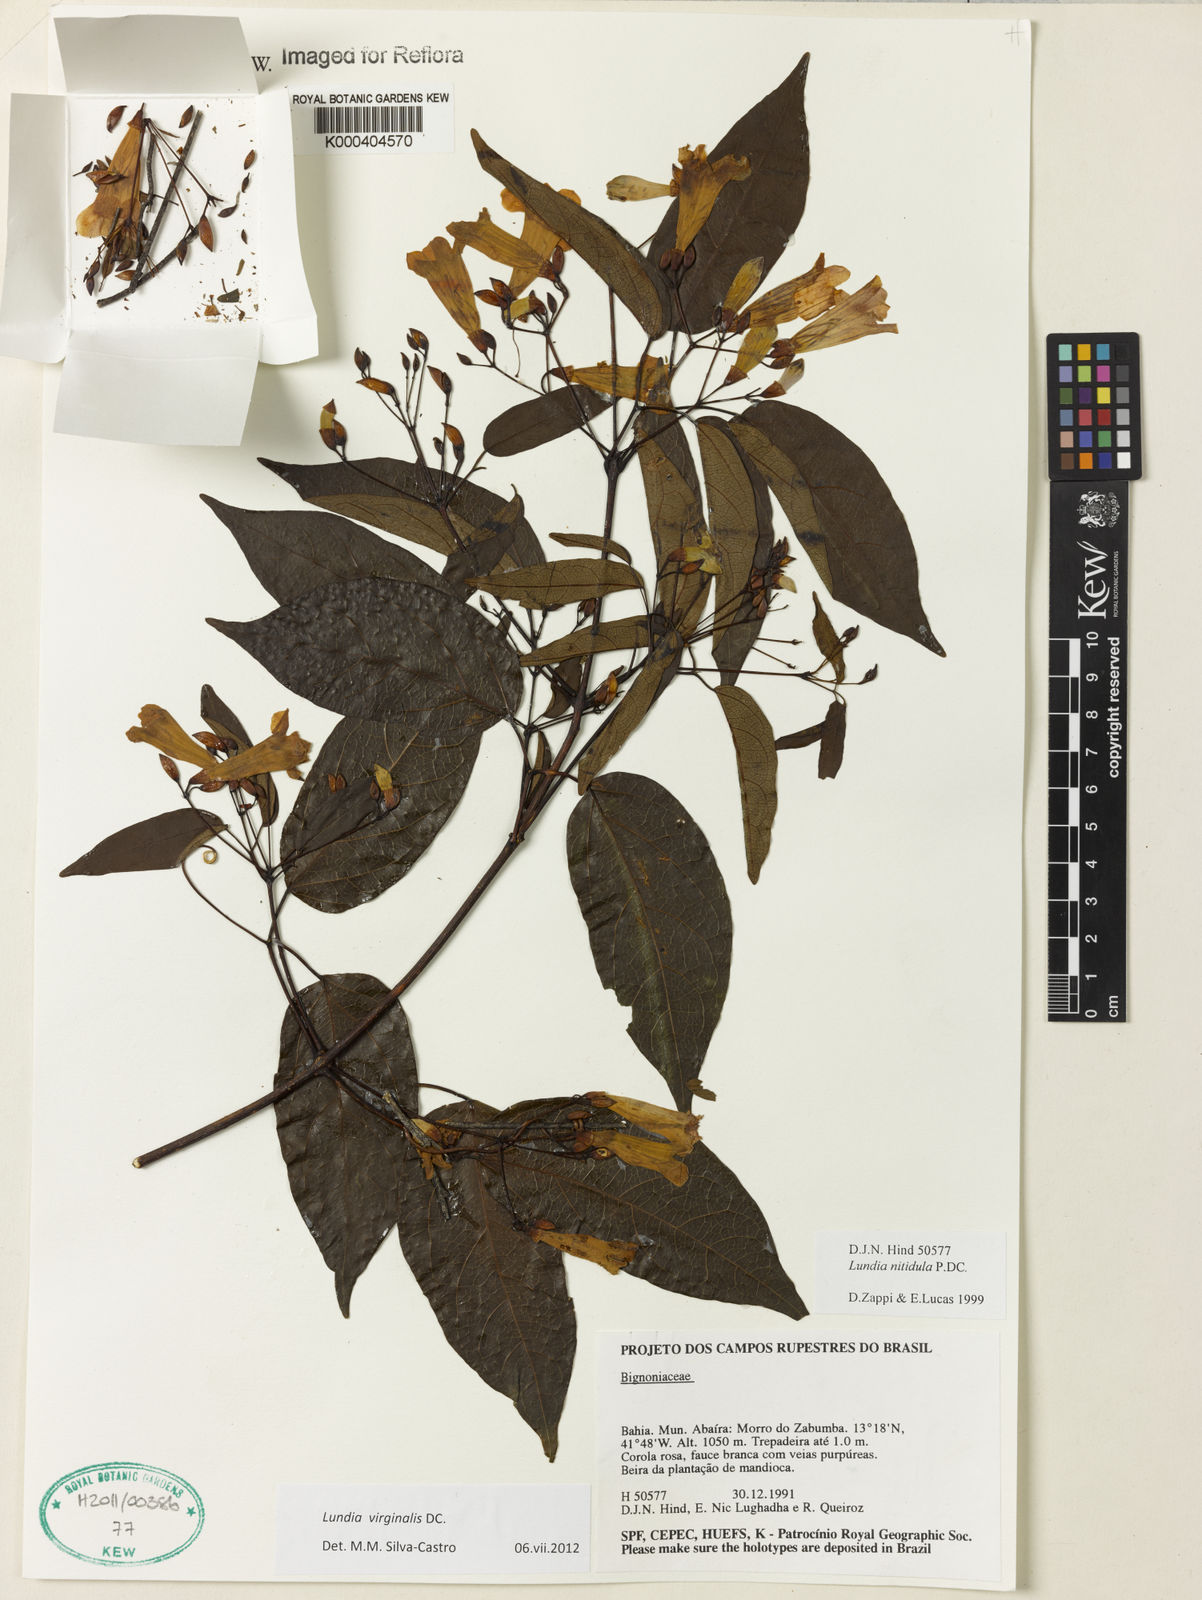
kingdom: Plantae
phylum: Tracheophyta
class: Magnoliopsida
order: Lamiales
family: Bignoniaceae
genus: Lundia
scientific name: Lundia virginalis
